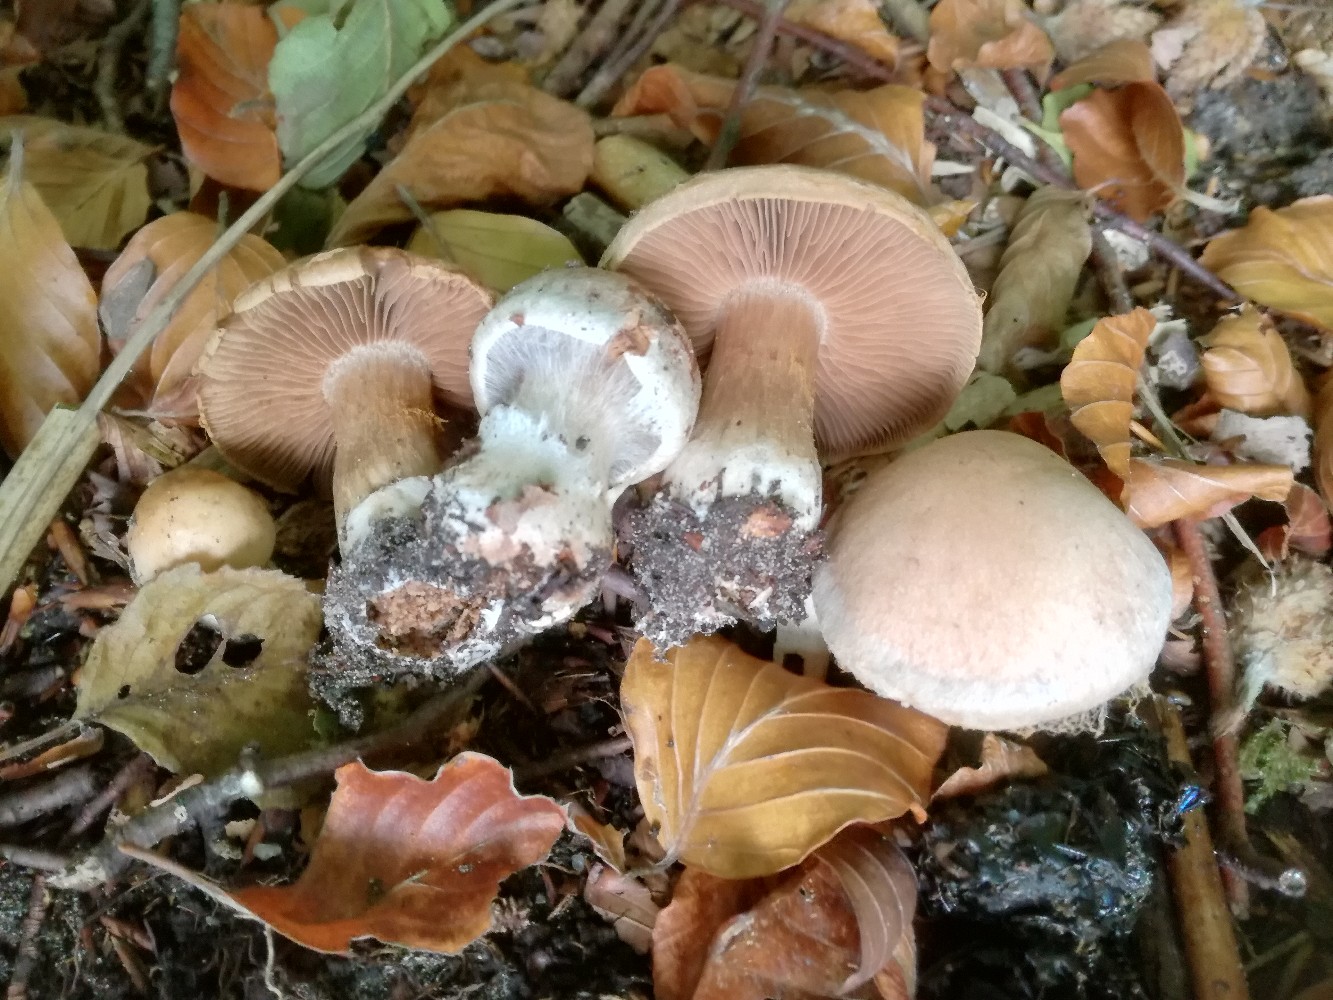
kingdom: Fungi
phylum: Basidiomycota
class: Agaricomycetes
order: Agaricales
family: Cortinariaceae
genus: Cortinarius
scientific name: Cortinarius aprinus
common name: vildsvine-slørhat
